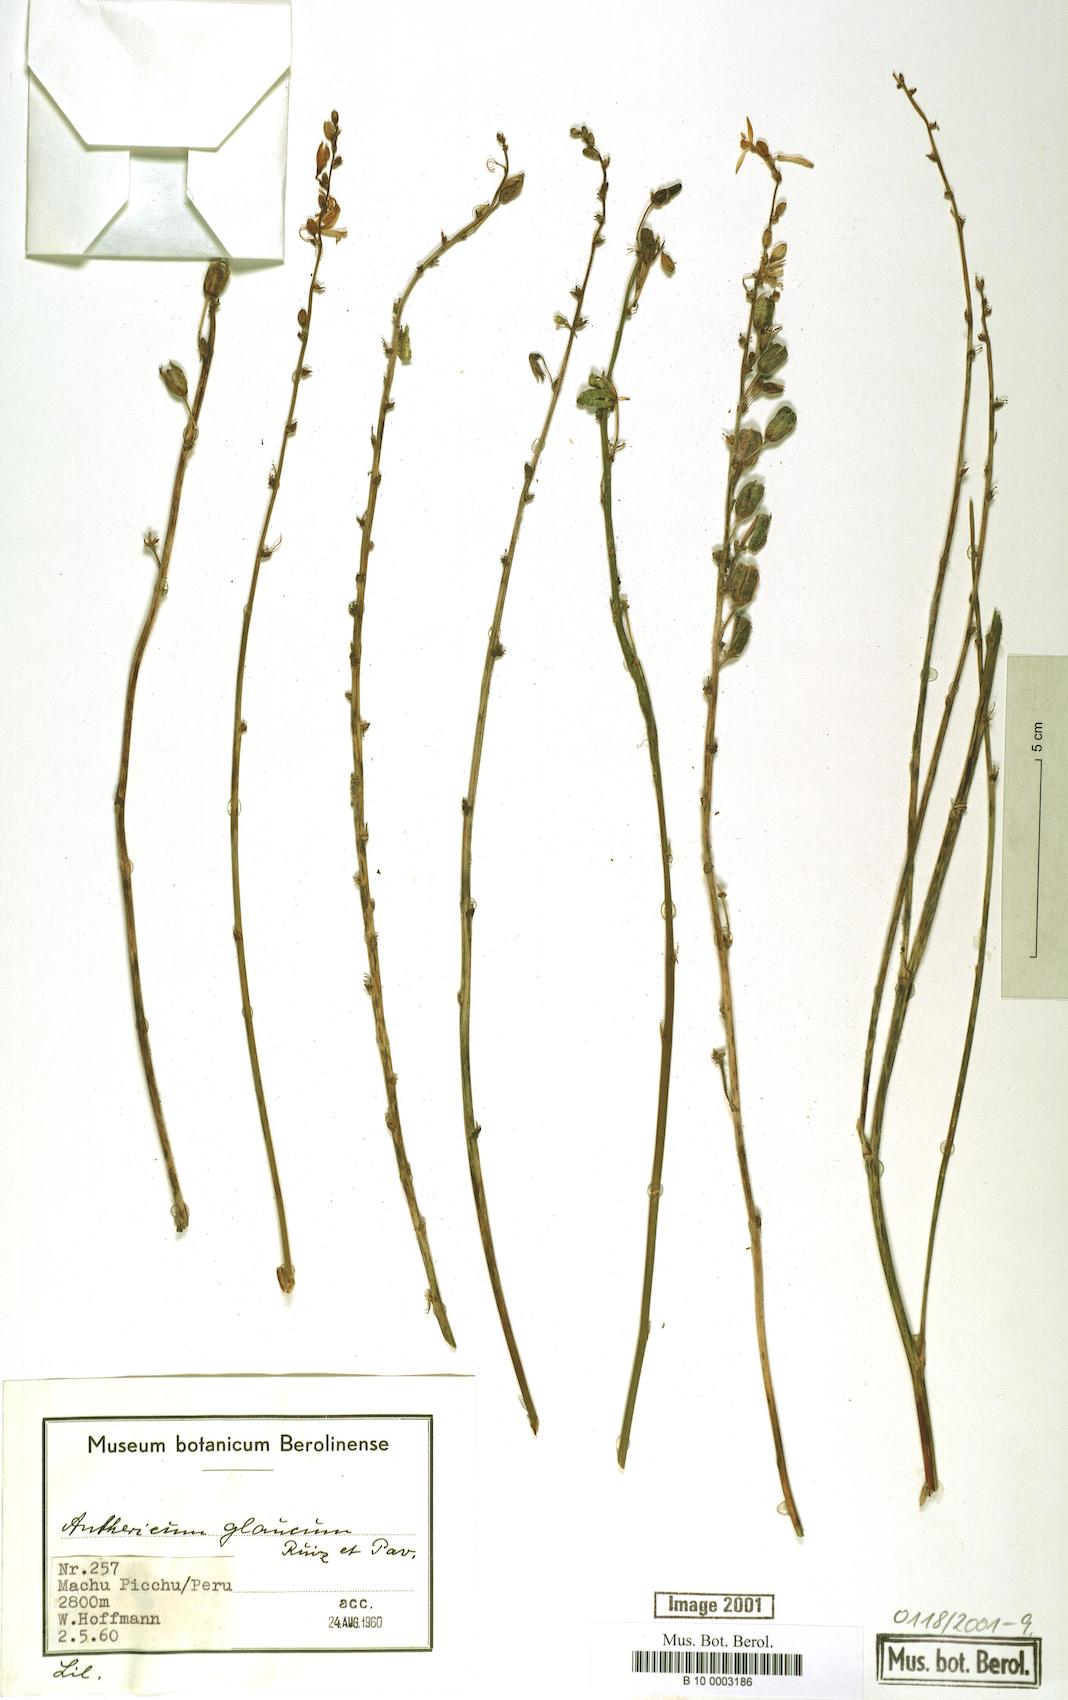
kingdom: Plantae
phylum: Tracheophyta
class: Liliopsida
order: Asparagales
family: Asparagaceae
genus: Trihesperus
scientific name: Trihesperus glaucus
